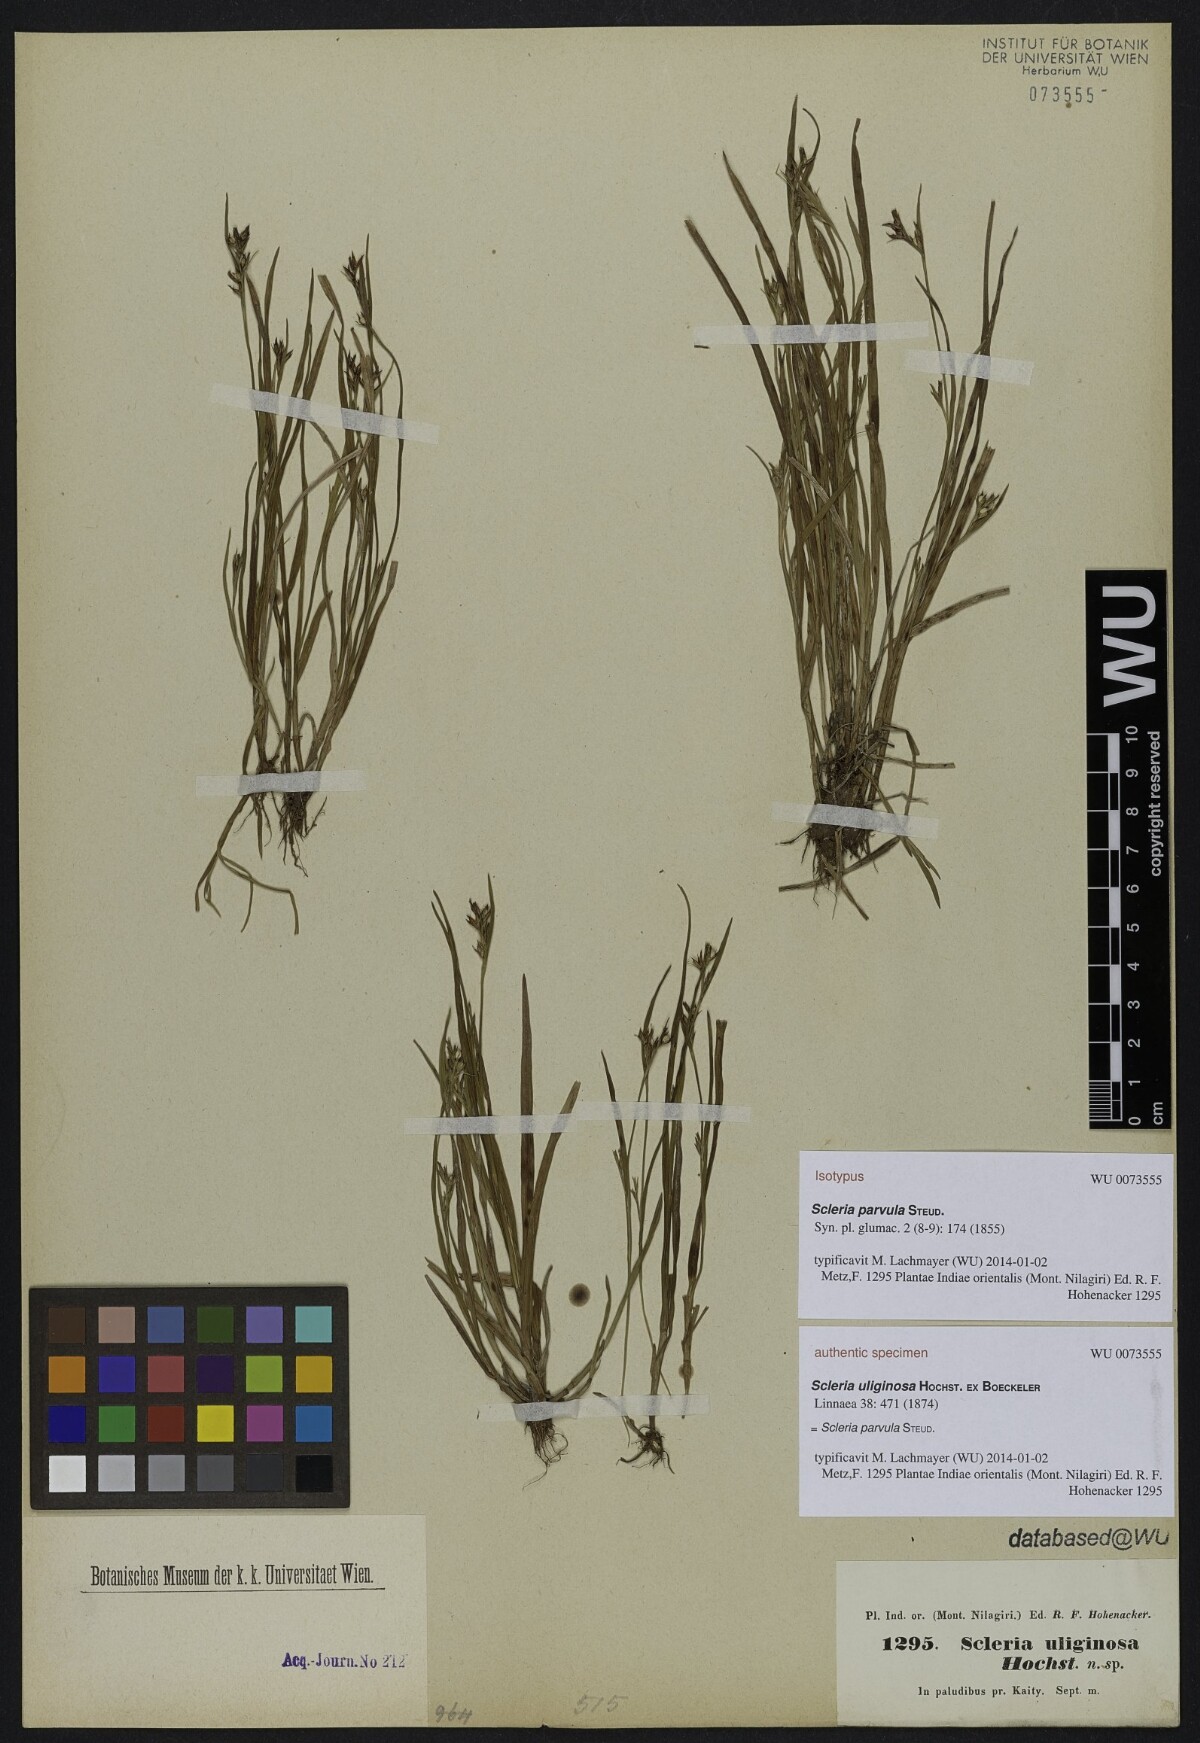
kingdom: Plantae
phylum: Tracheophyta
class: Liliopsida
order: Poales
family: Cyperaceae
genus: Scleria
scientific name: Scleria parvula
